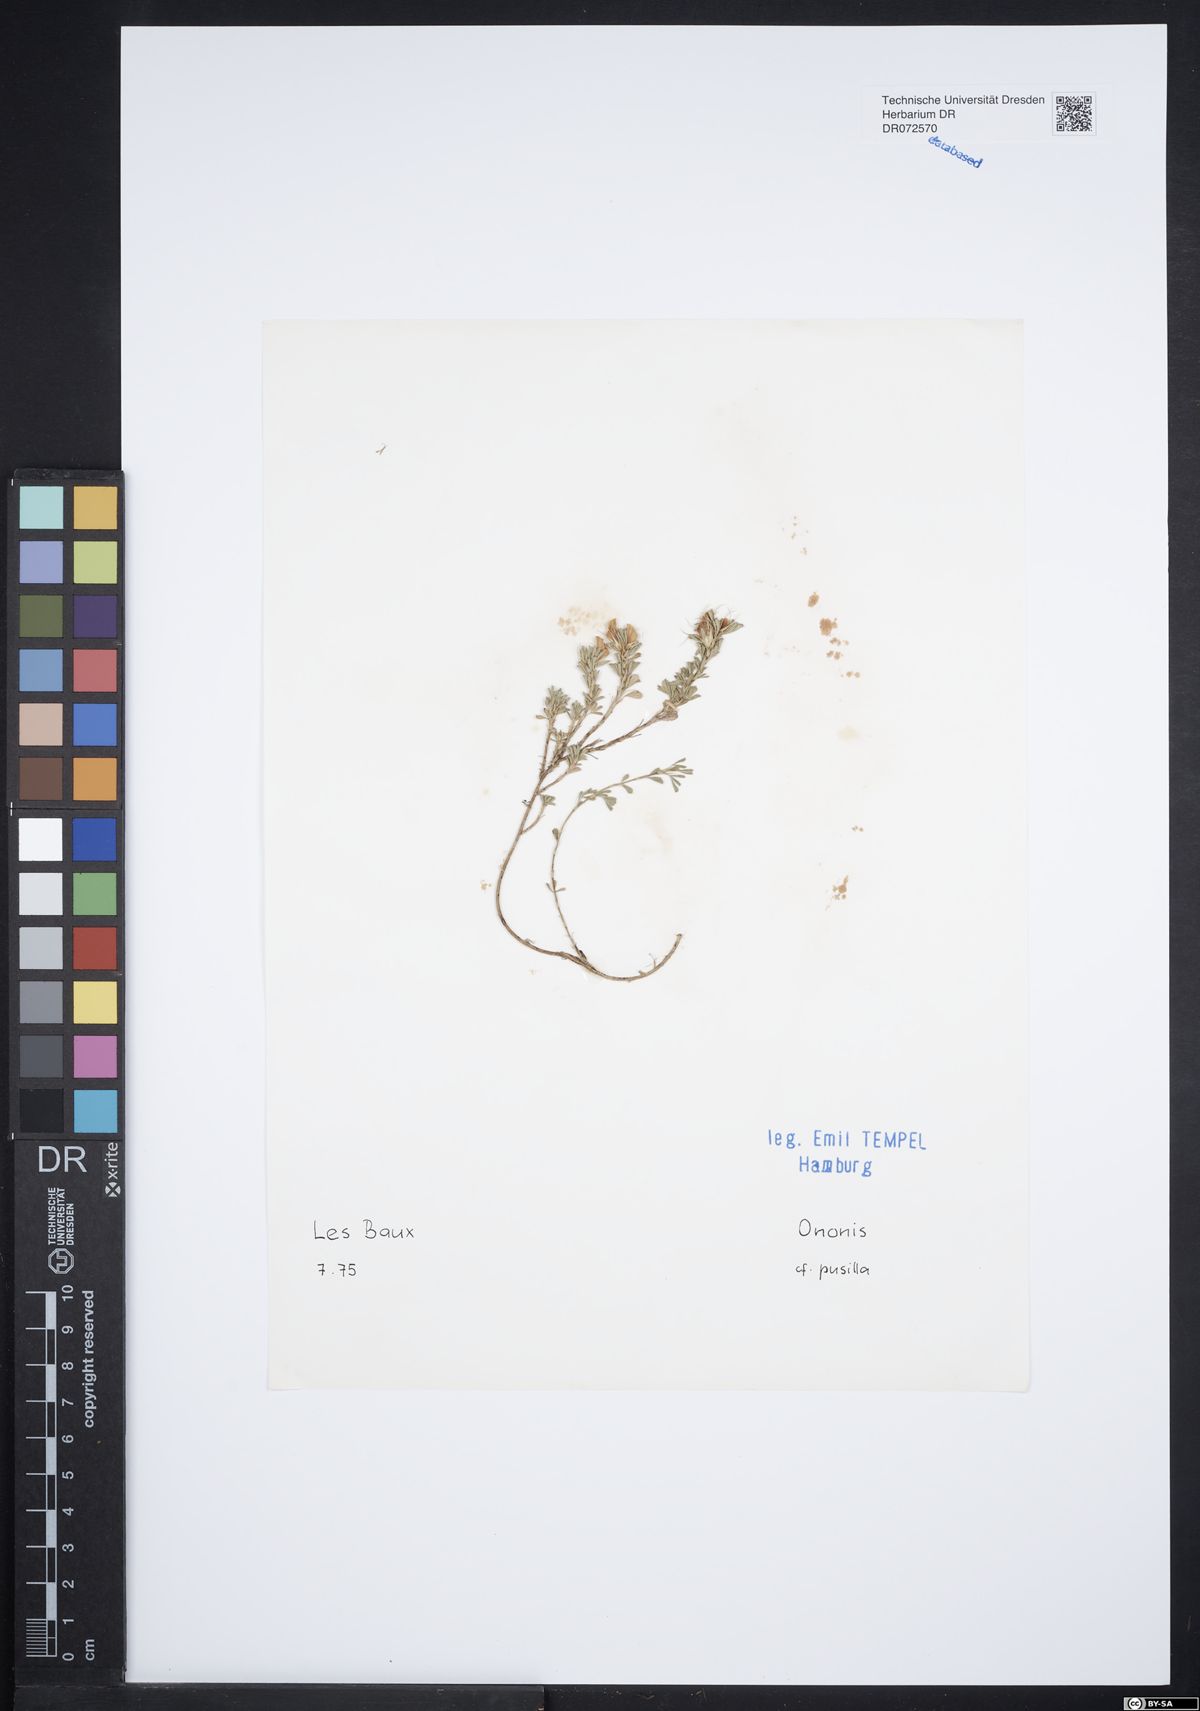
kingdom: Plantae
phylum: Tracheophyta
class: Magnoliopsida
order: Fabales
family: Fabaceae
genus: Ononis
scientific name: Ononis pusilla
